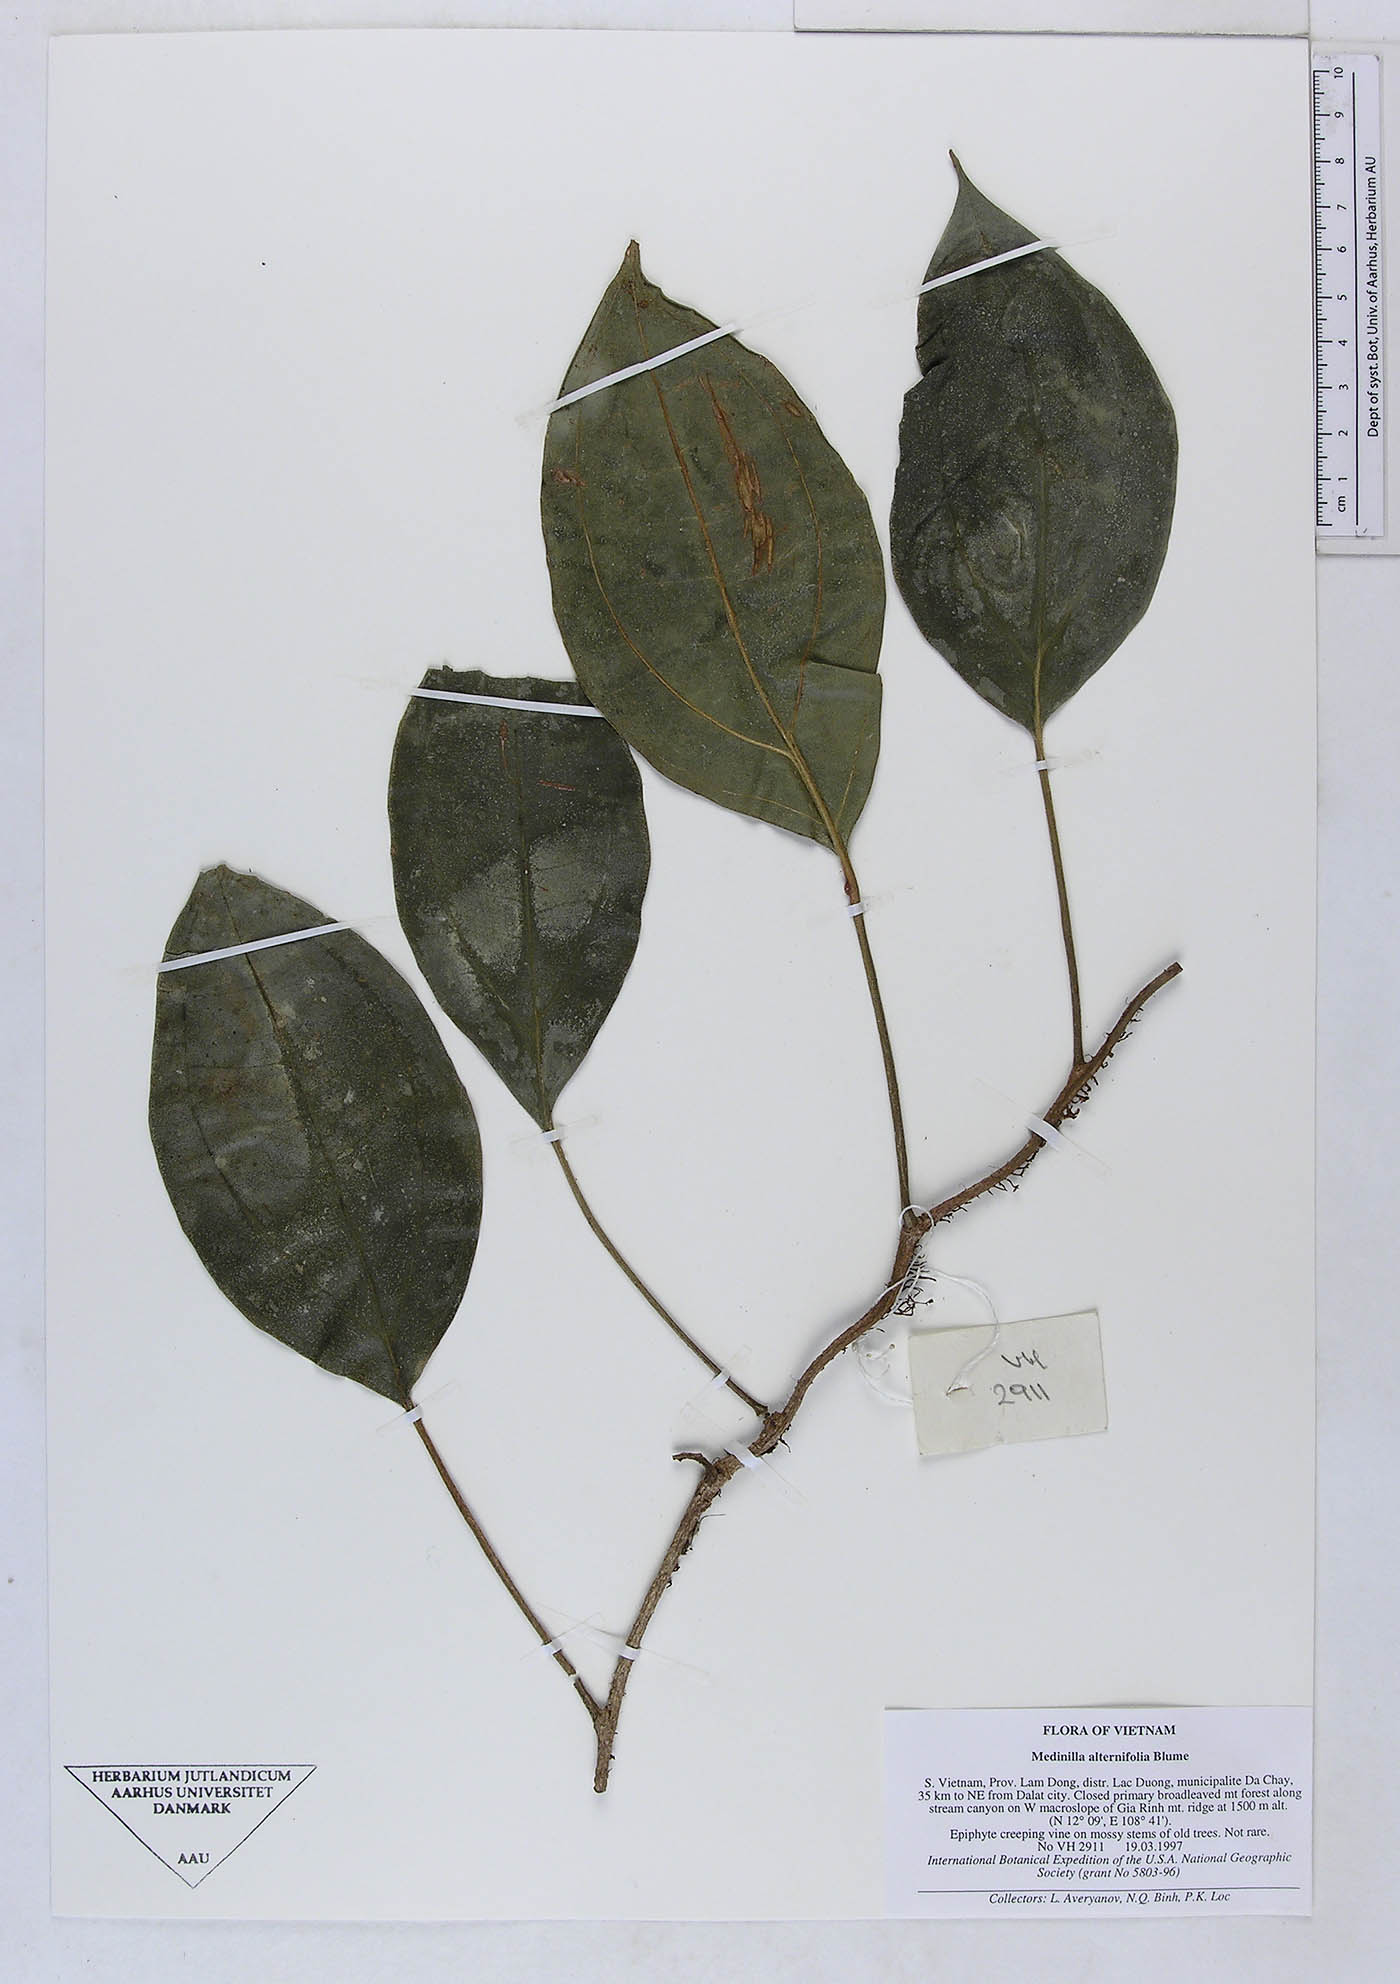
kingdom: Plantae
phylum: Tracheophyta
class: Magnoliopsida
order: Myrtales
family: Melastomataceae
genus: Heteroblemma
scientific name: Heteroblemma bisetosum
